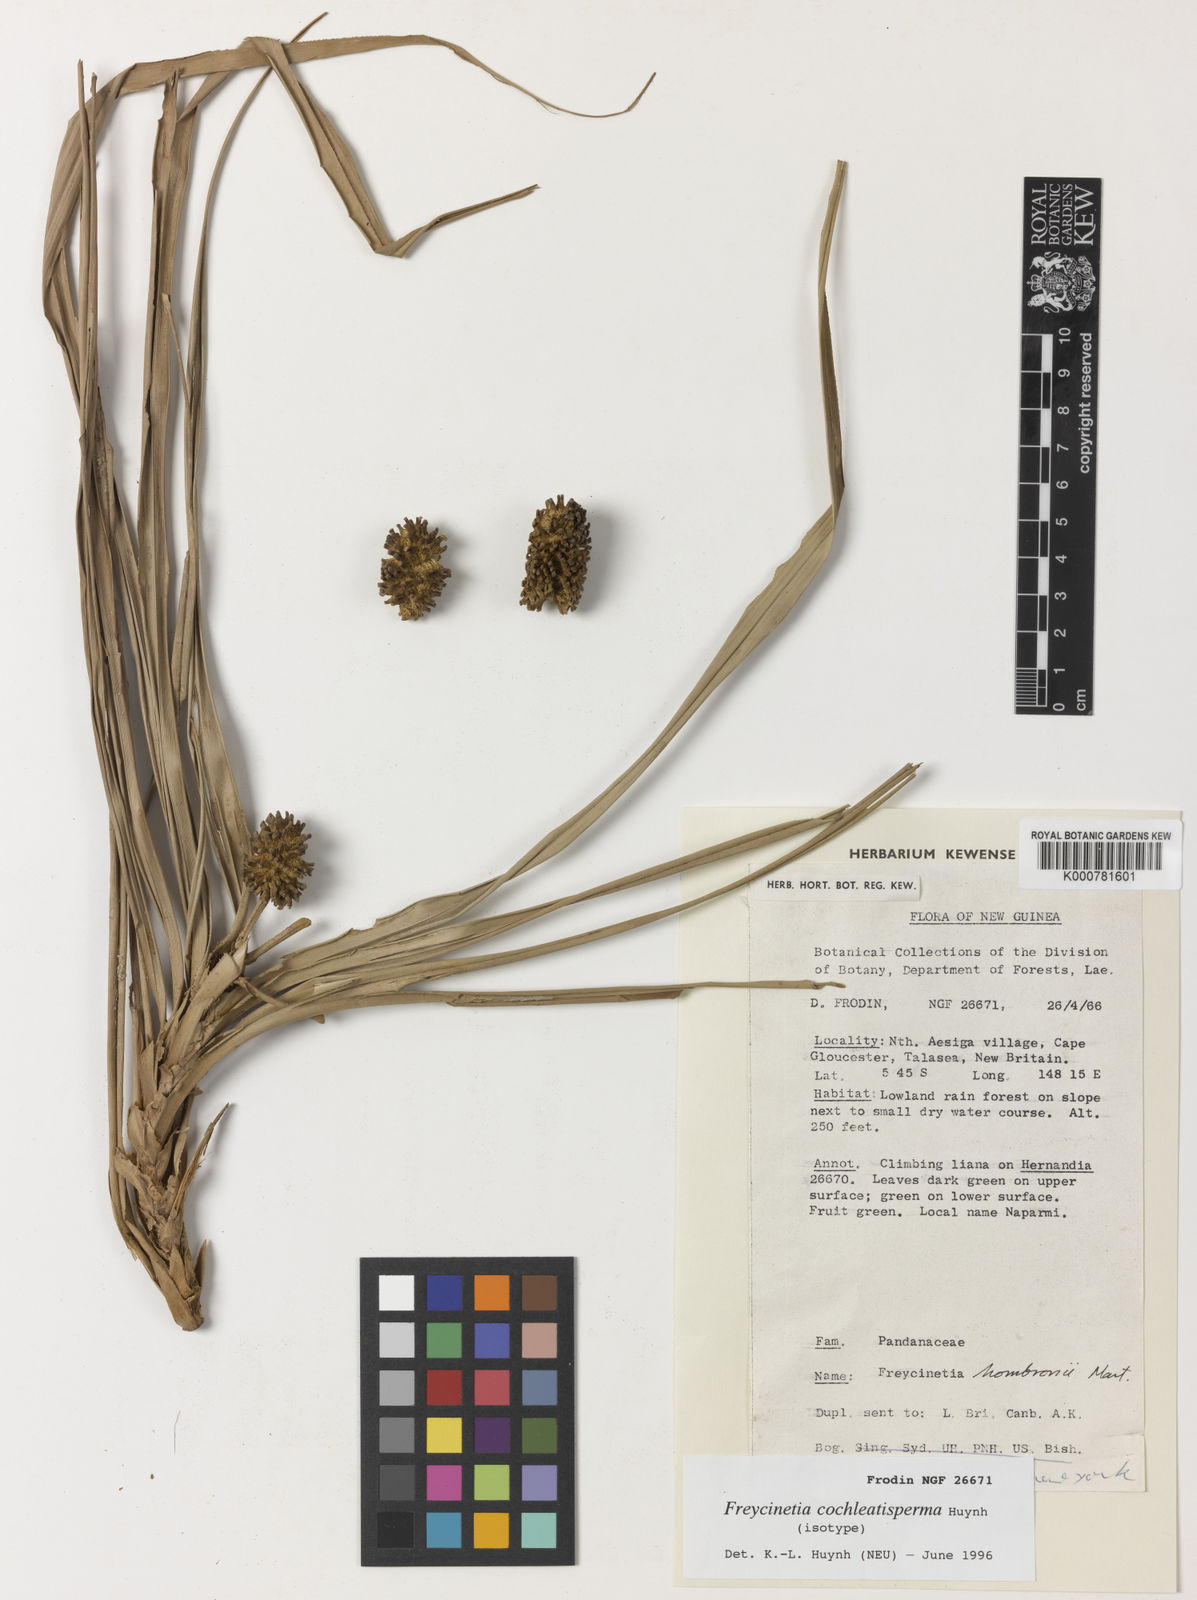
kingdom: Plantae
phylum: Tracheophyta
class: Liliopsida
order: Pandanales
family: Pandanaceae
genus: Freycinetia
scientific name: Freycinetia cochleatisperma
